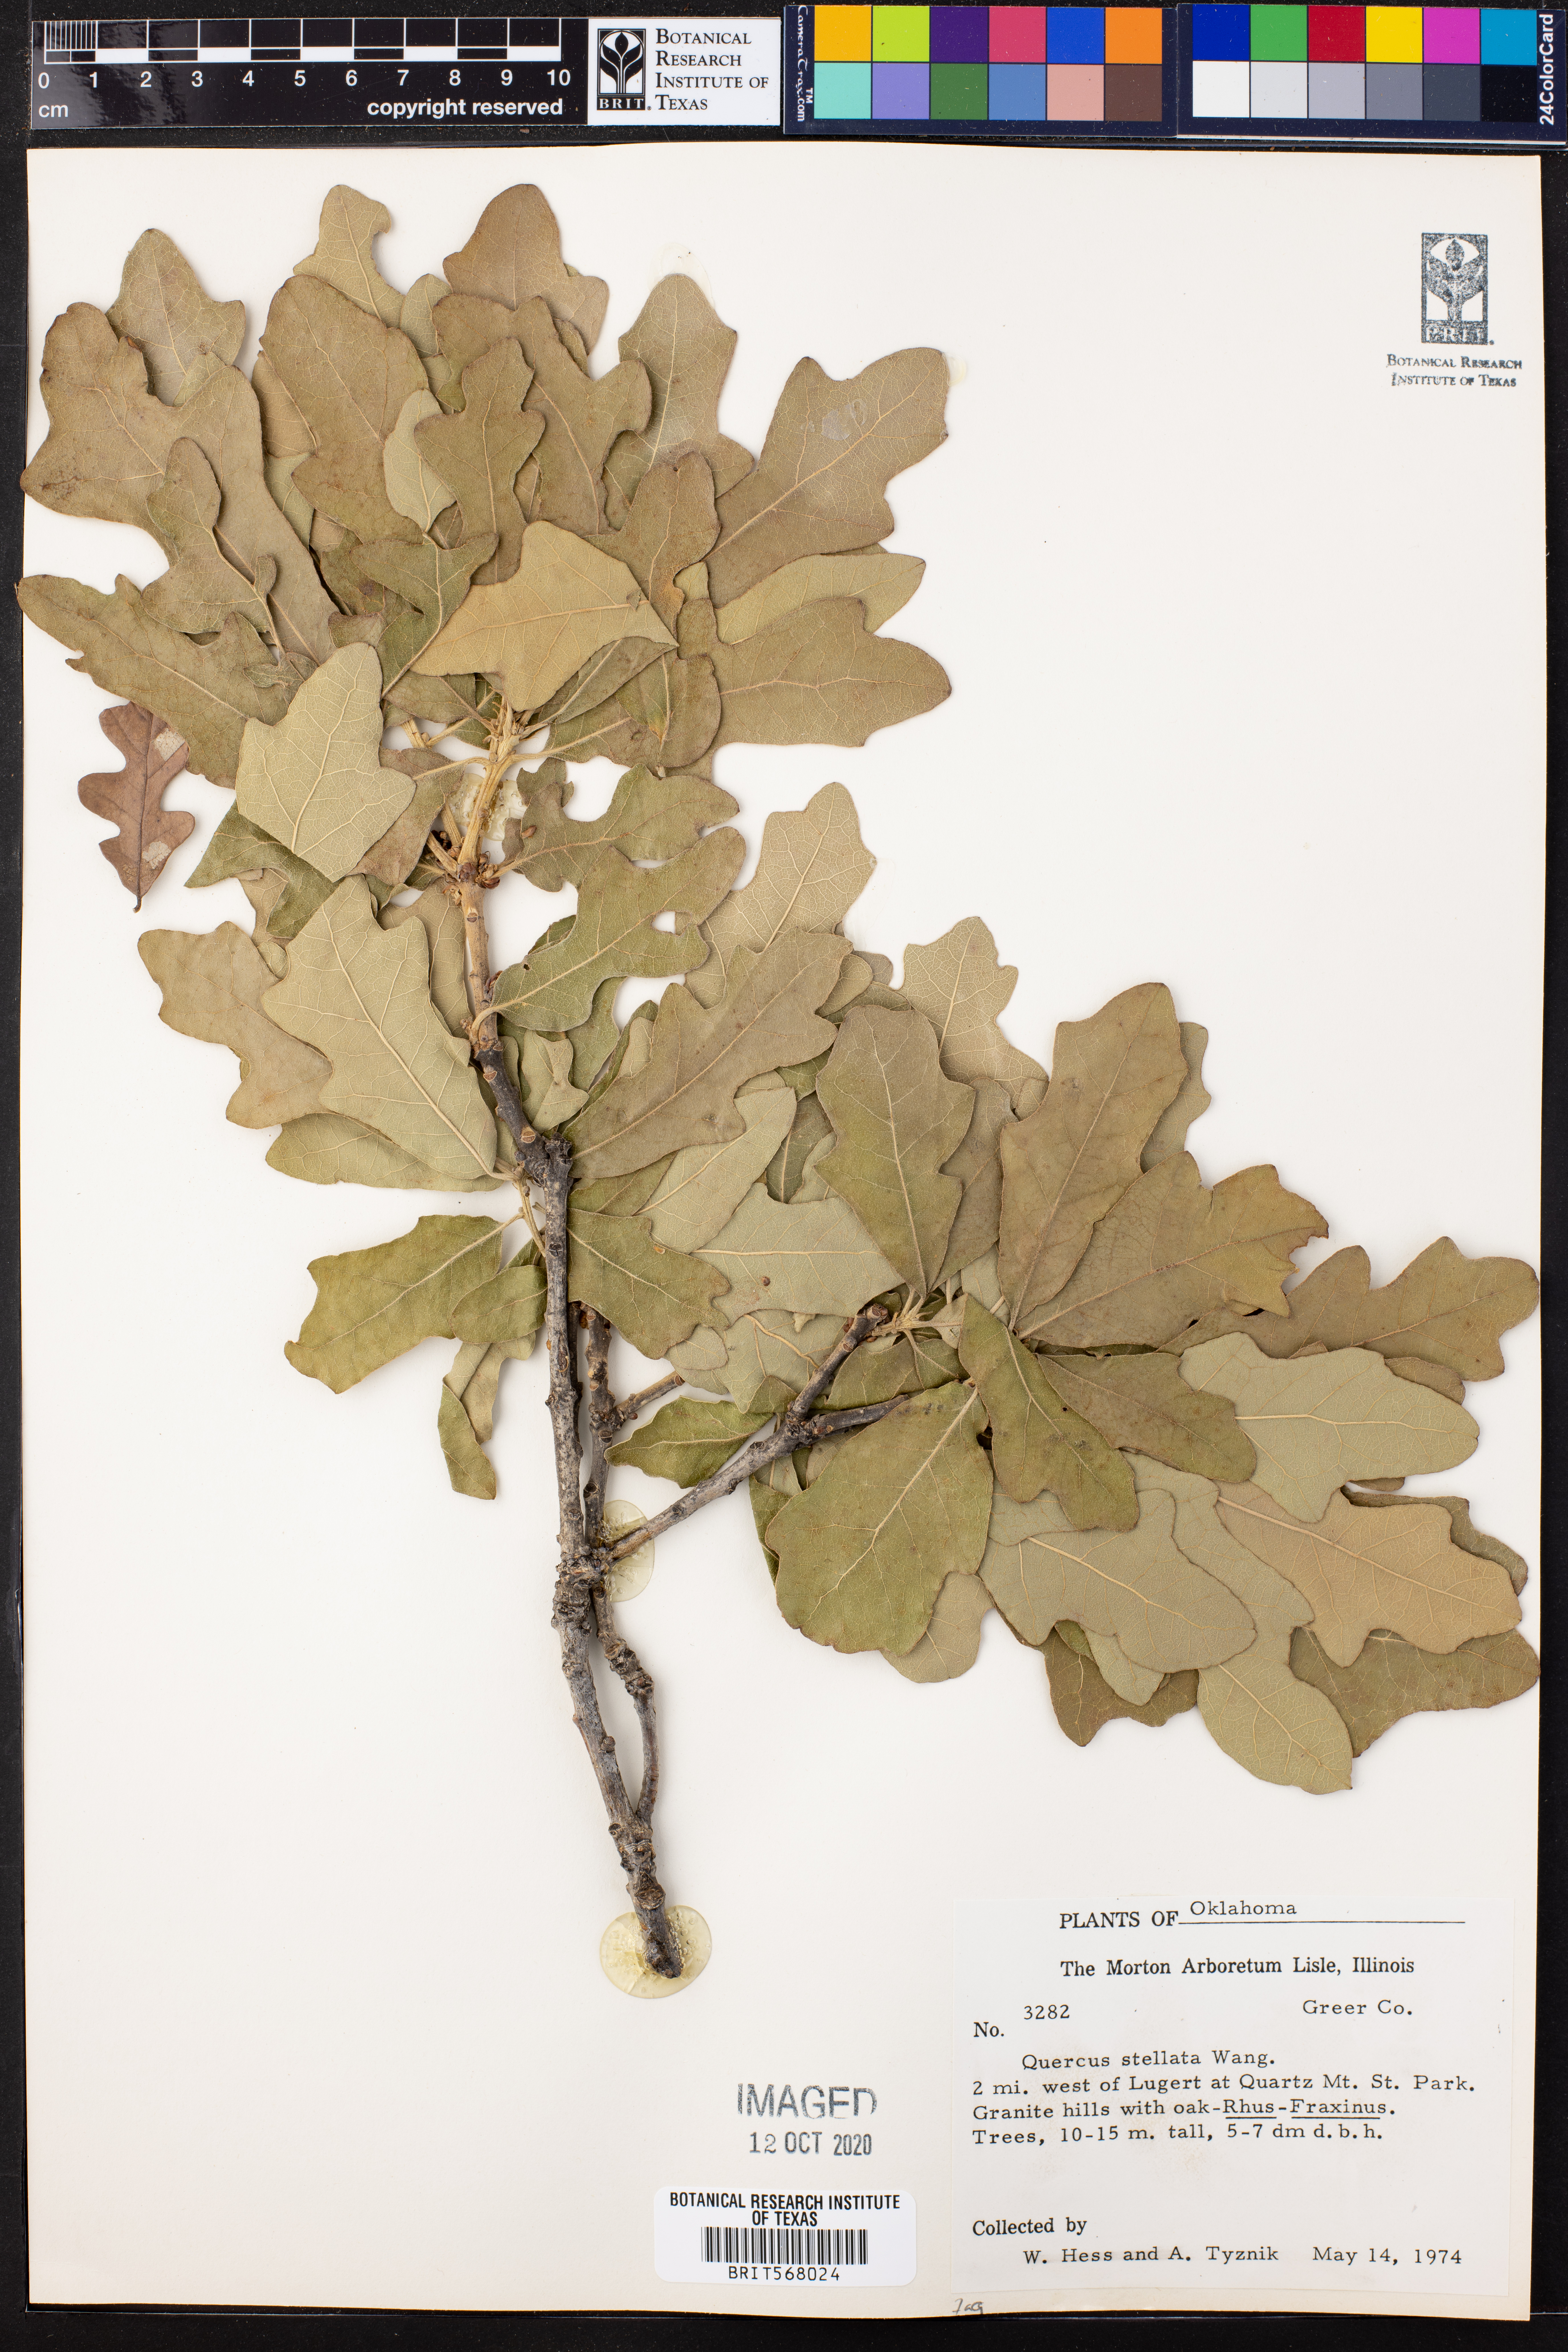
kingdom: Plantae
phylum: Tracheophyta
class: Magnoliopsida
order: Fagales
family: Fagaceae
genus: Quercus
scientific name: Quercus stellata
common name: Post oak
